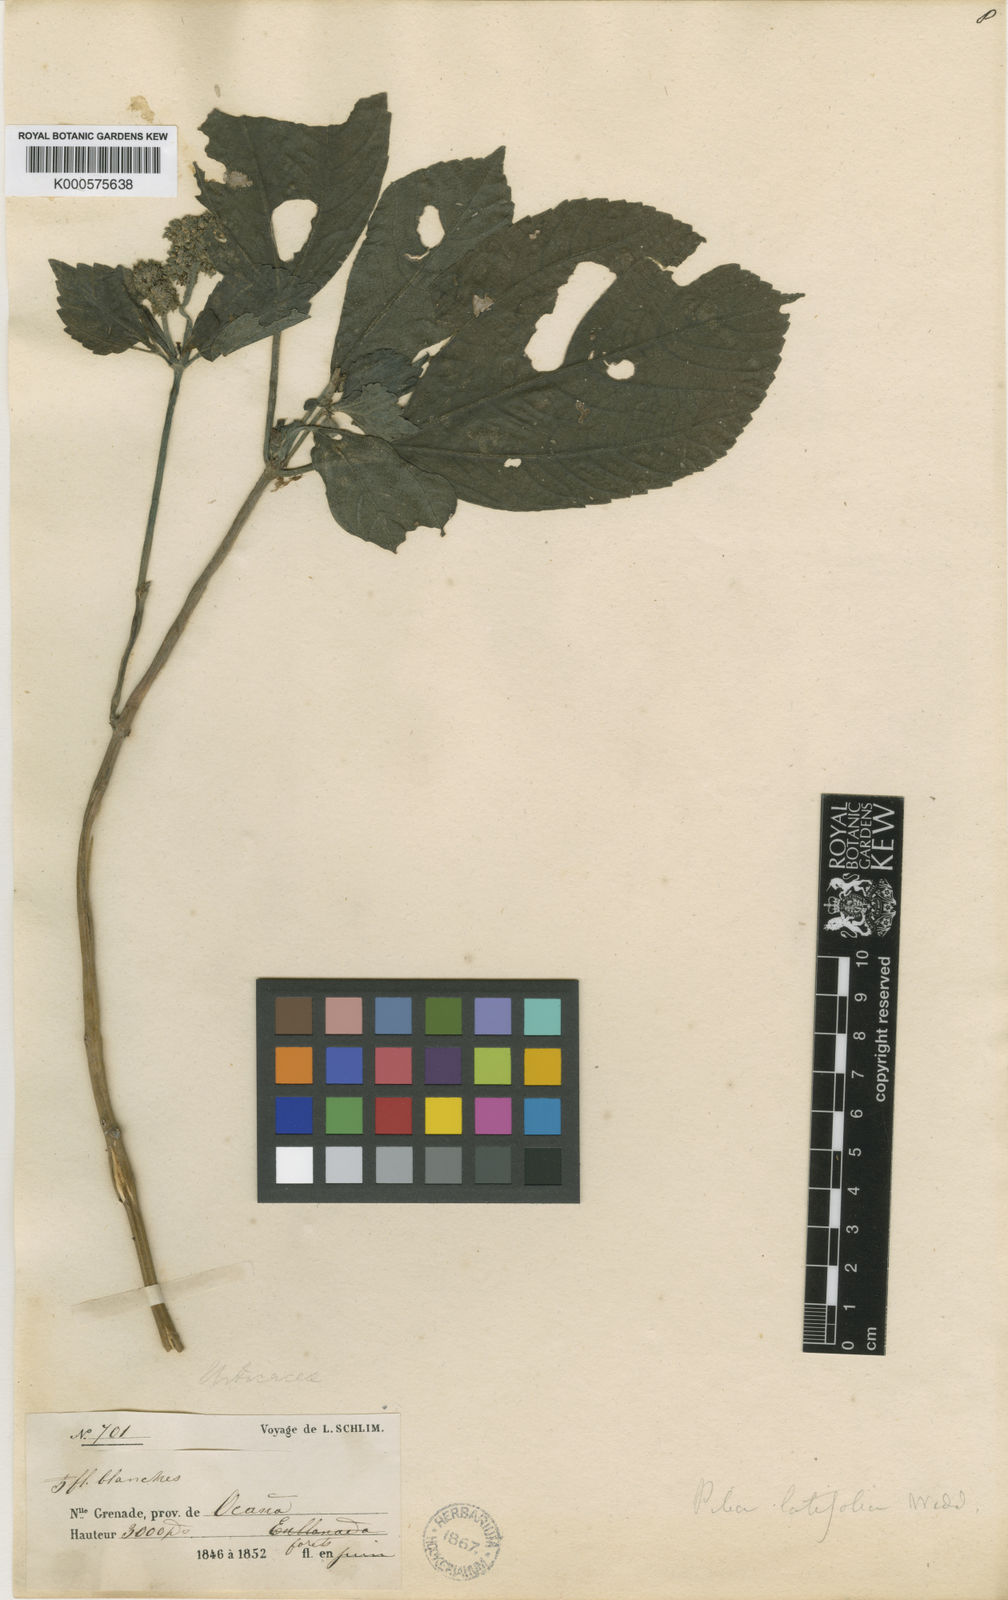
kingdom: Plantae
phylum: Tracheophyta
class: Magnoliopsida
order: Rosales
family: Urticaceae
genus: Pilea
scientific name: Pilea latifolia
